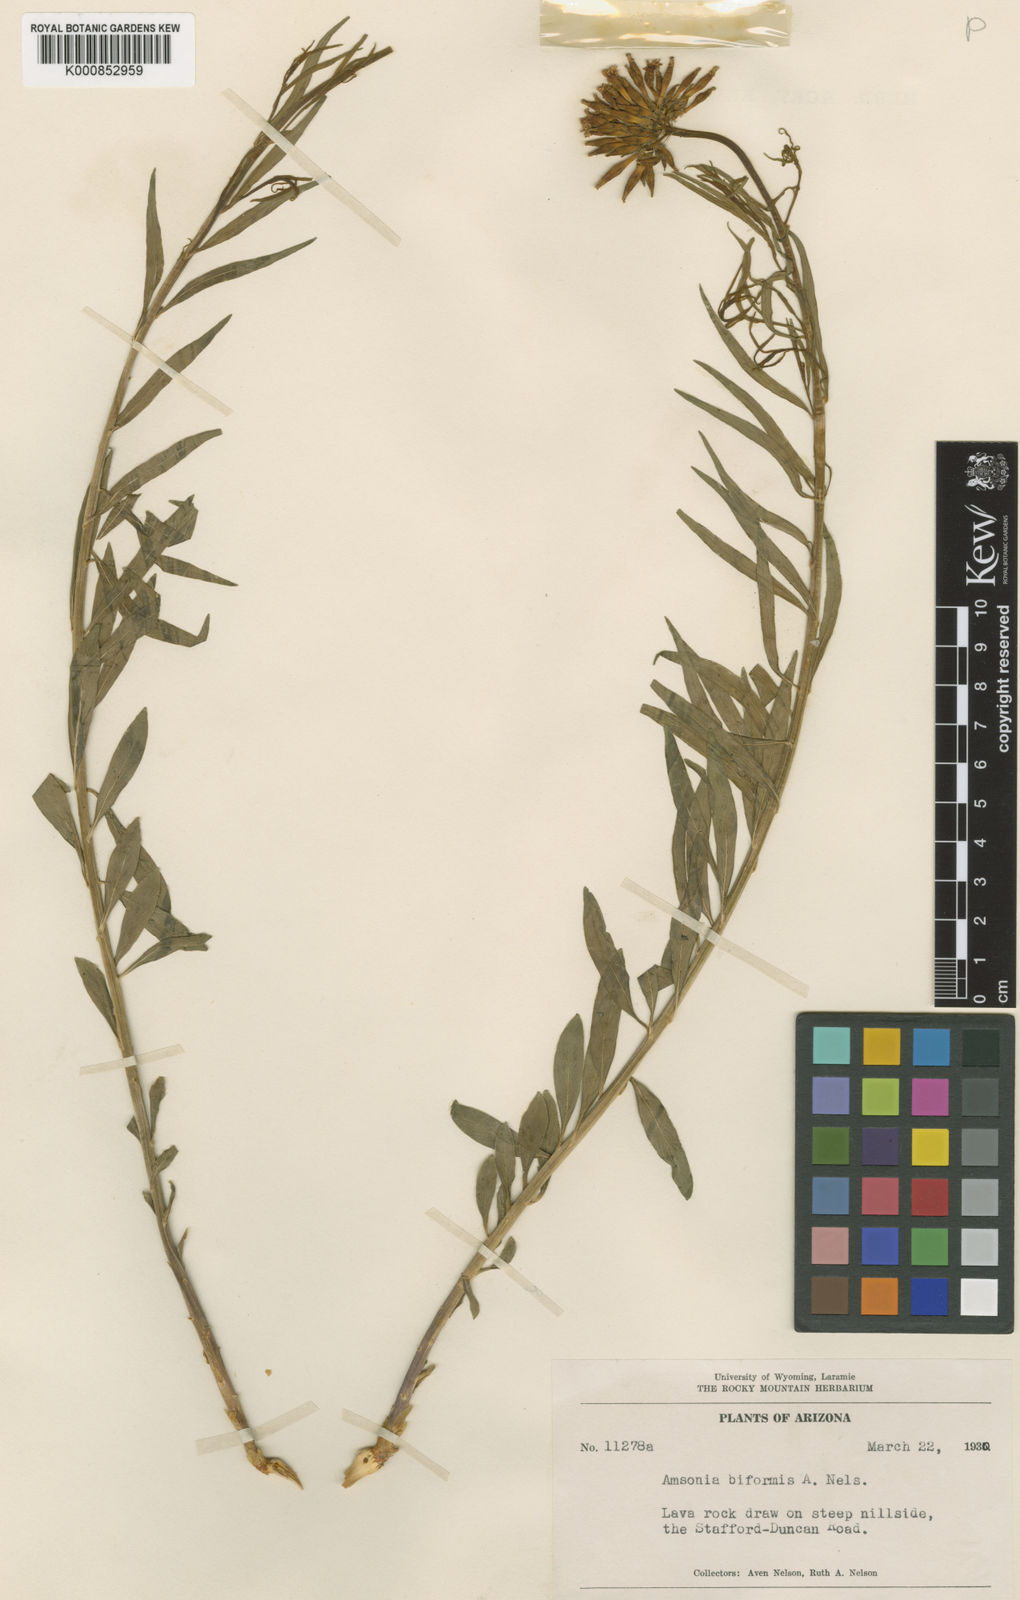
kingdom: Plantae
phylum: Tracheophyta
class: Magnoliopsida
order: Gentianales
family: Apocynaceae
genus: Amsonia
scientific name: Amsonia palmeri
